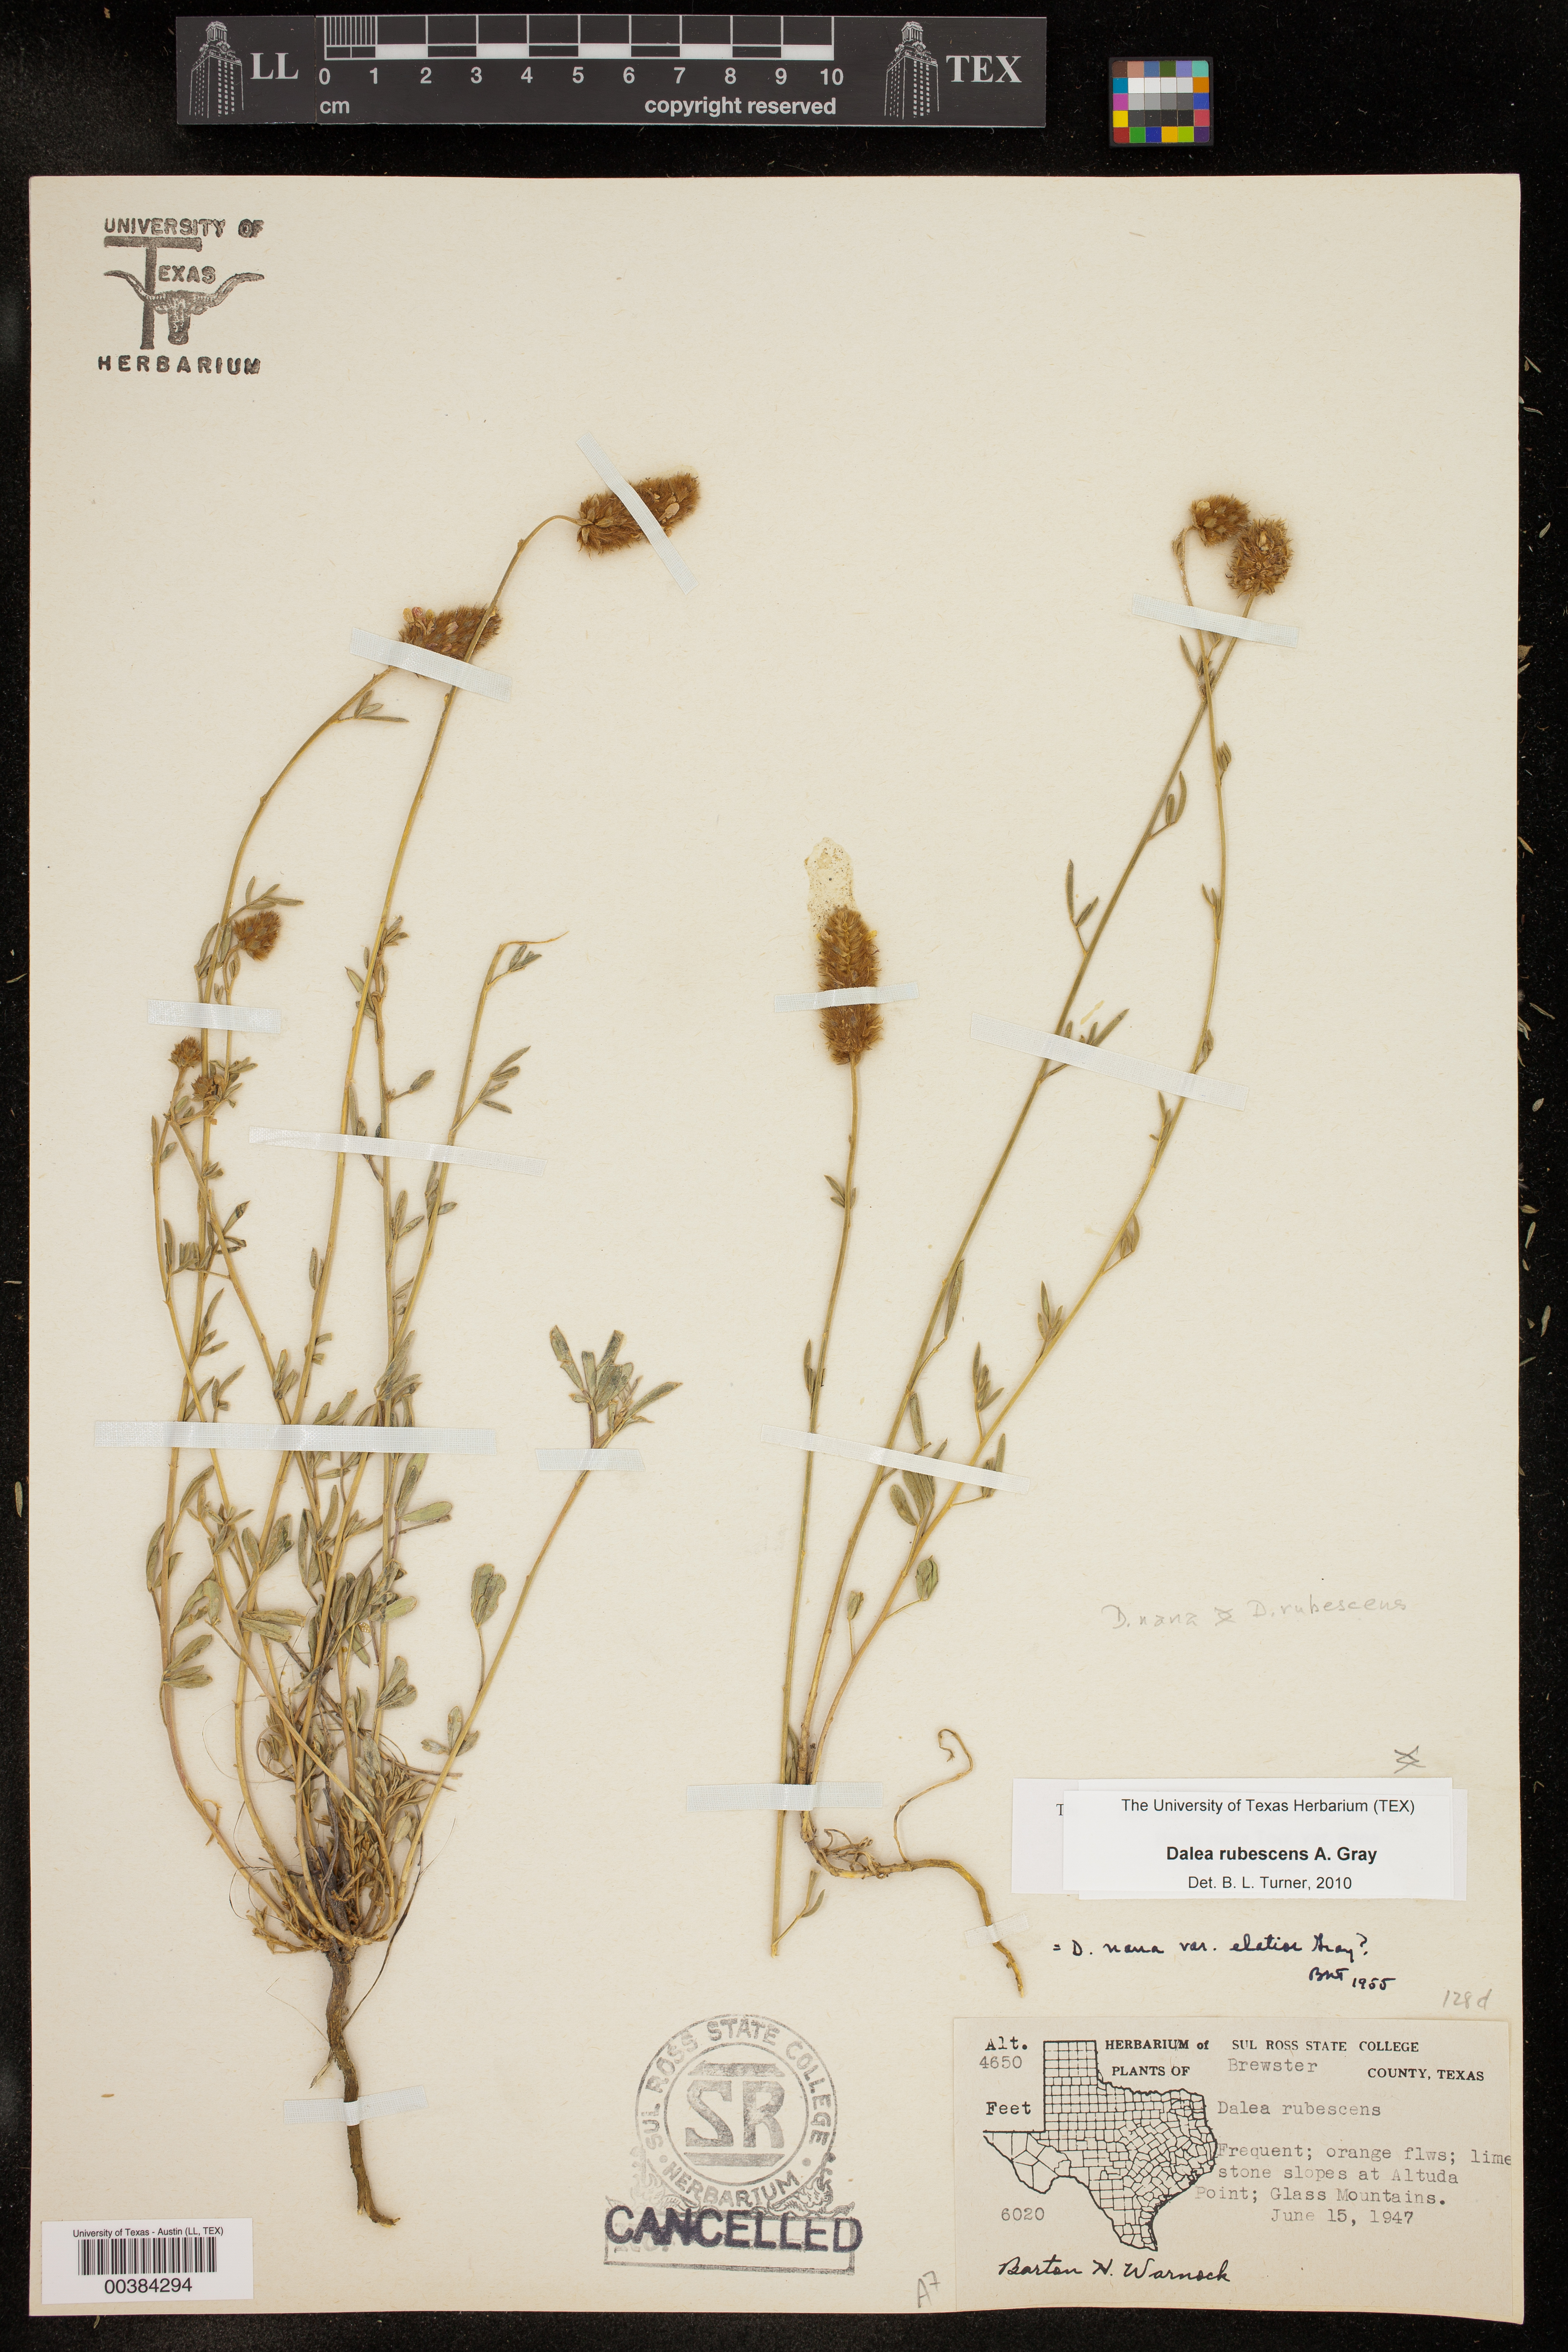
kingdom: Plantae
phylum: Tracheophyta
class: Magnoliopsida
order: Fabales
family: Fabaceae
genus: Dalea
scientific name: Dalea rubescens
